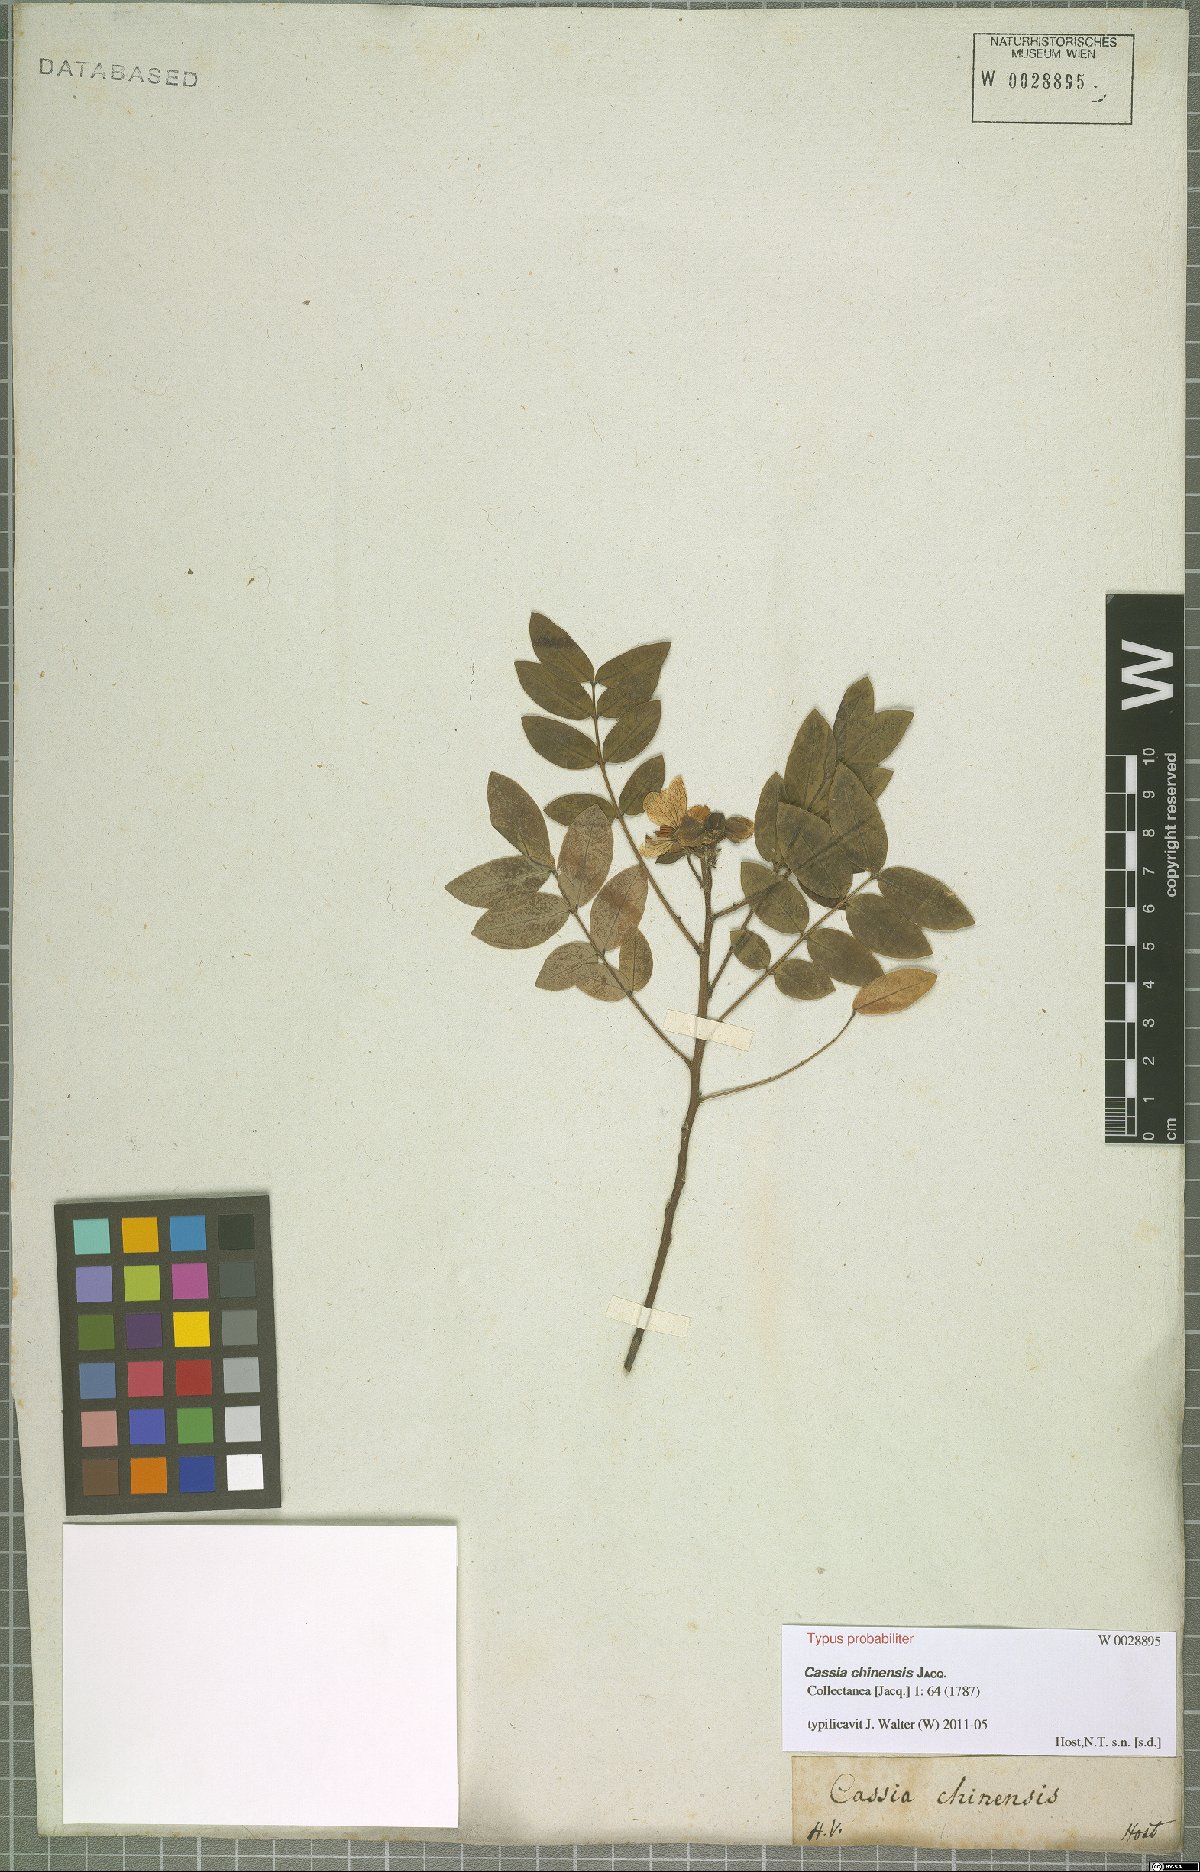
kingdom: Plantae
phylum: Tracheophyta
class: Magnoliopsida
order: Fabales
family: Fabaceae
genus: Senna
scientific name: Senna sophera
